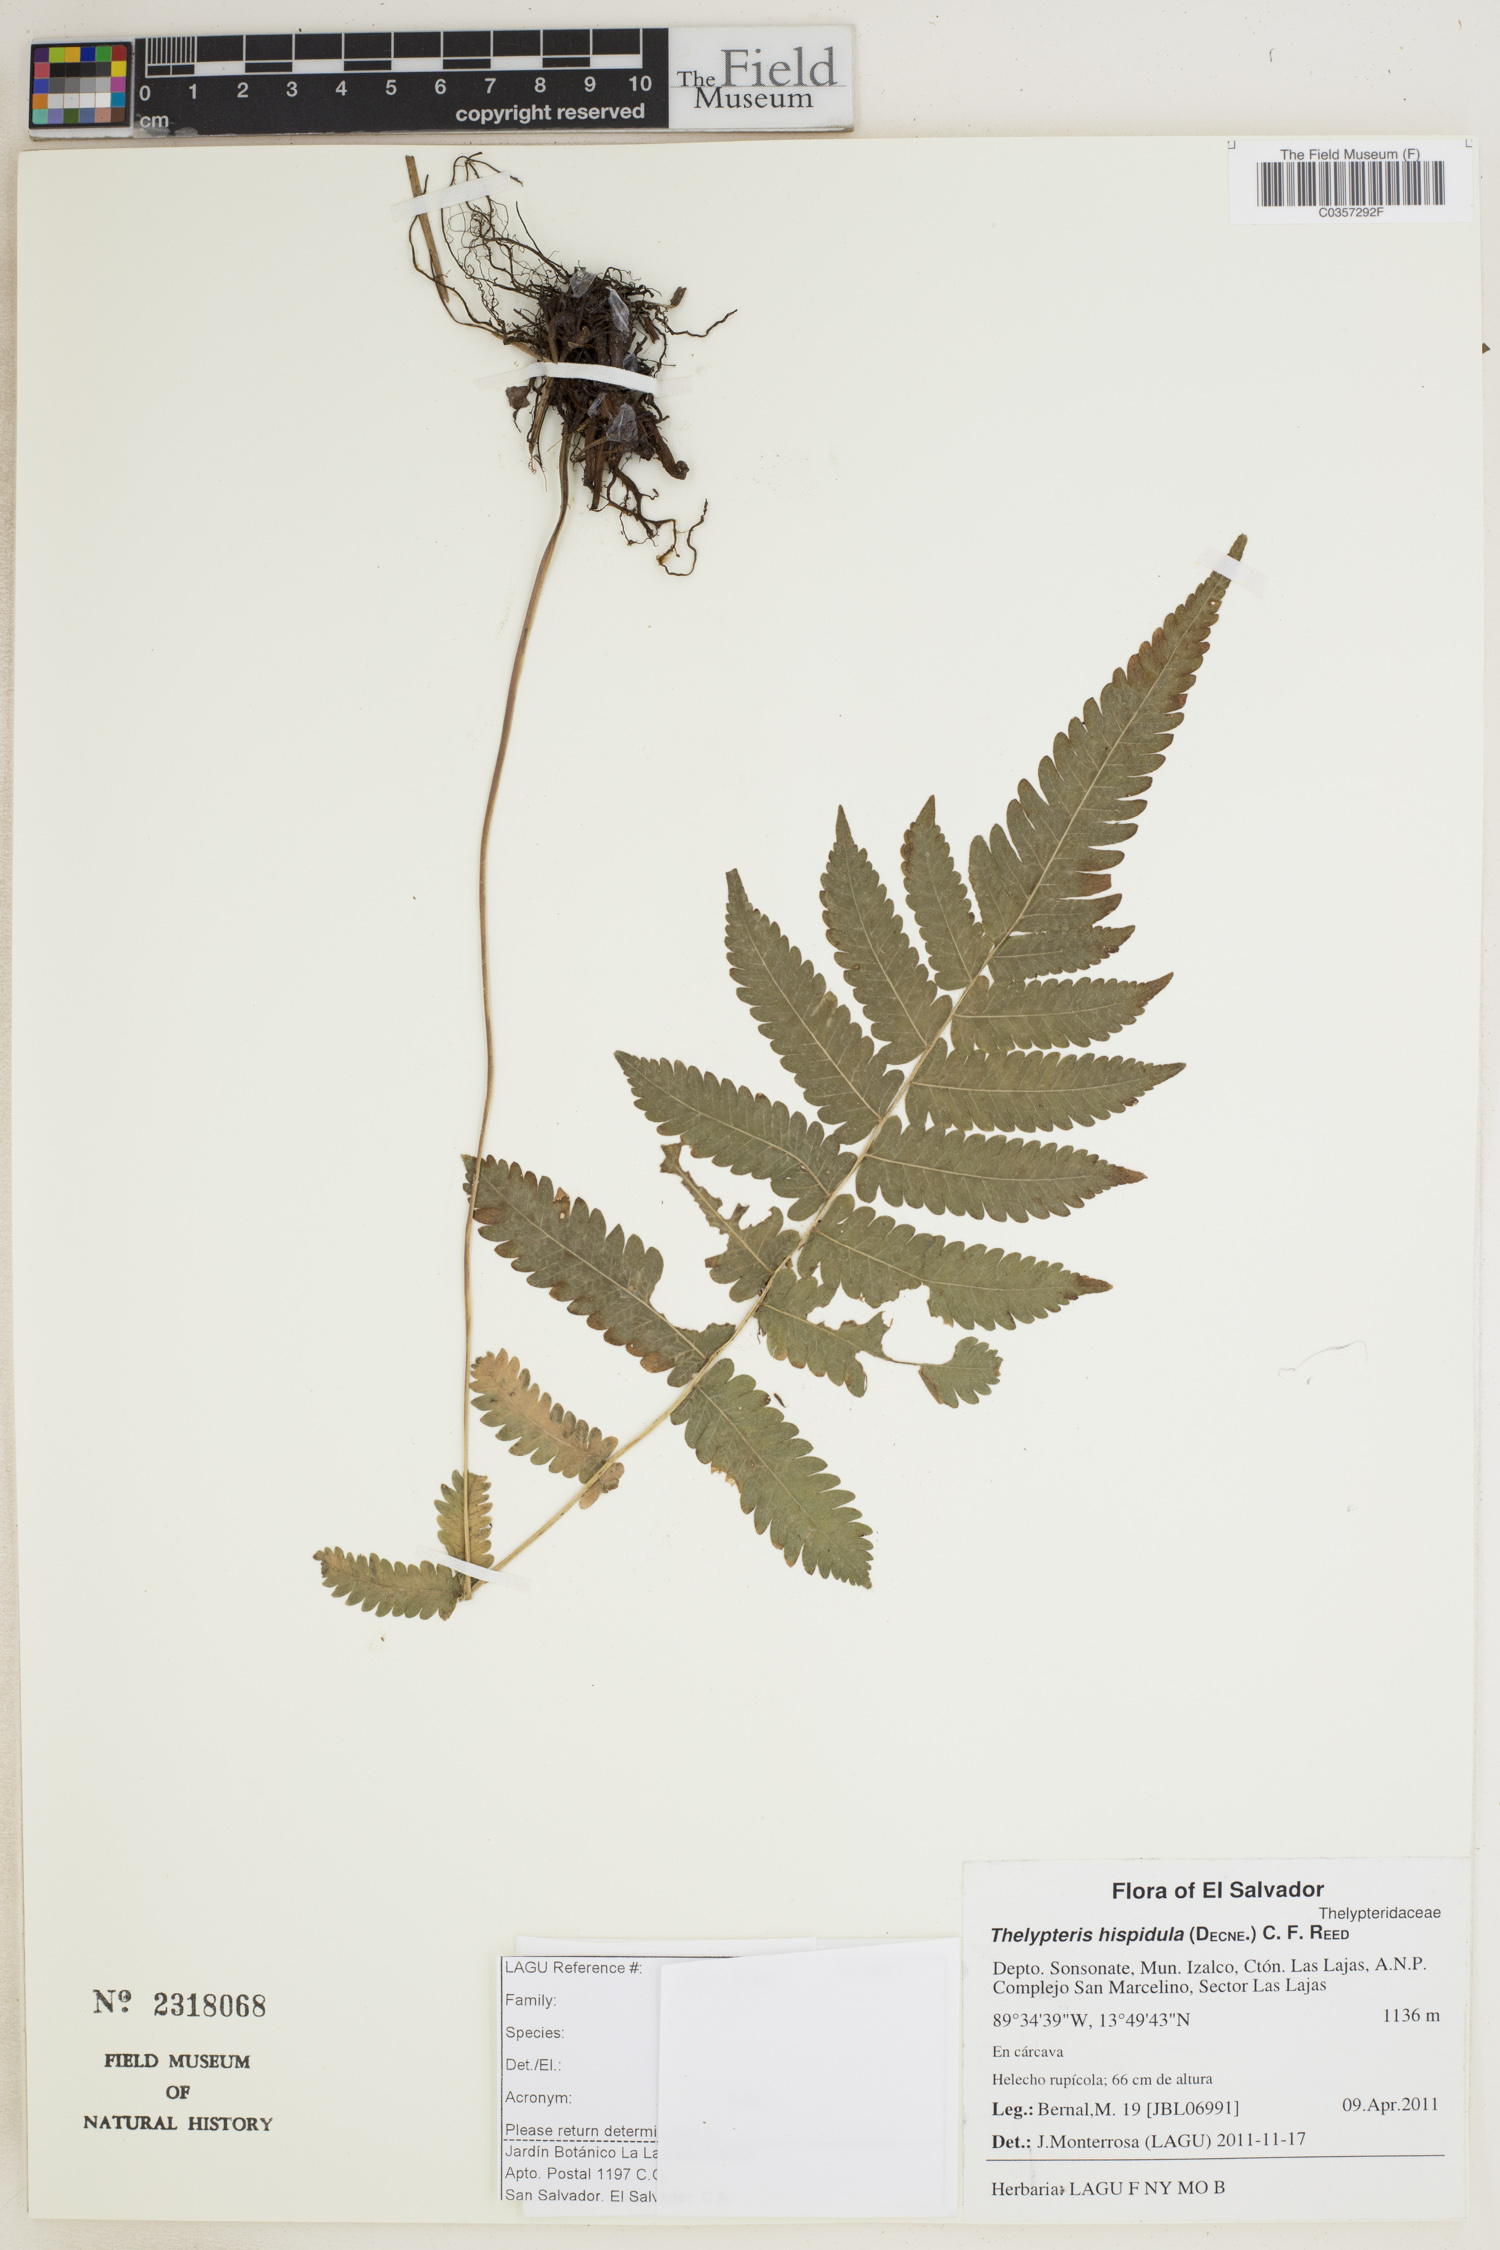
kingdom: Plantae
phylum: Tracheophyta
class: Polypodiopsida
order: Polypodiales
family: Thelypteridaceae
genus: Christella
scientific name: Christella hispidula
